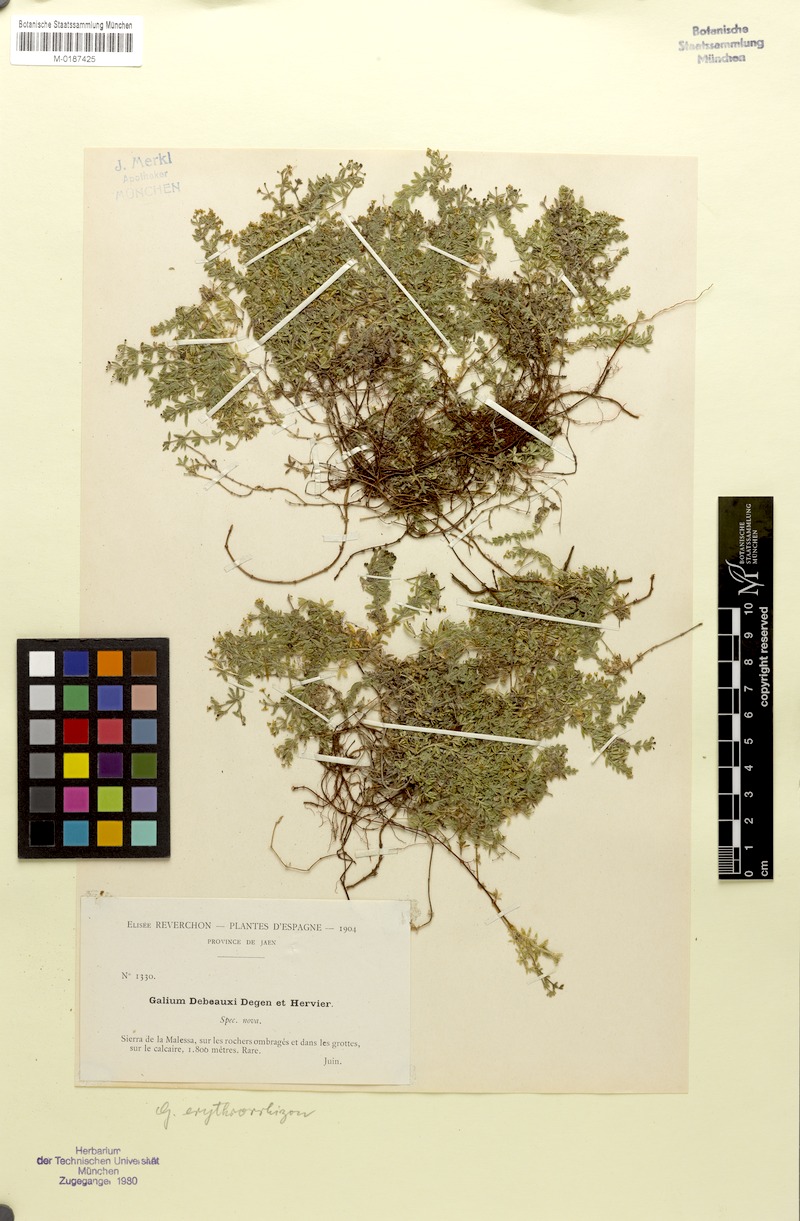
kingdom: Plantae
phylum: Tracheophyta
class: Magnoliopsida
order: Gentianales
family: Rubiaceae
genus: Galium
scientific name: Galium erythrorrhizon
